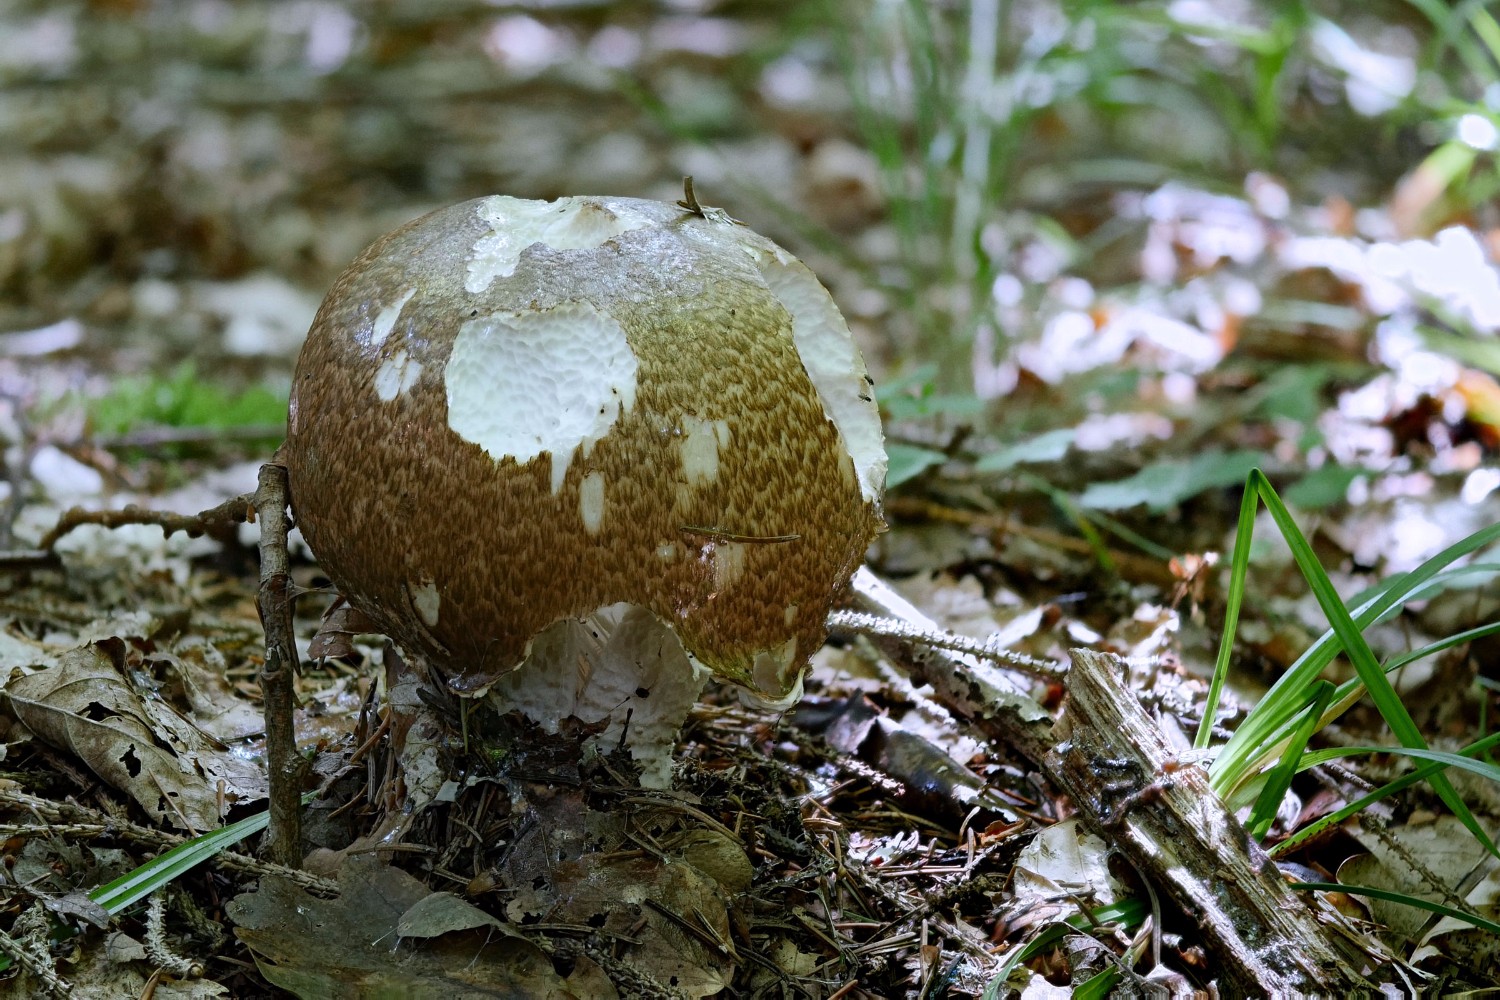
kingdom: Fungi
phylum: Basidiomycota
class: Agaricomycetes
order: Agaricales
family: Agaricaceae
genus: Agaricus
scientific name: Agaricus augustus
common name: prægtig champignon
